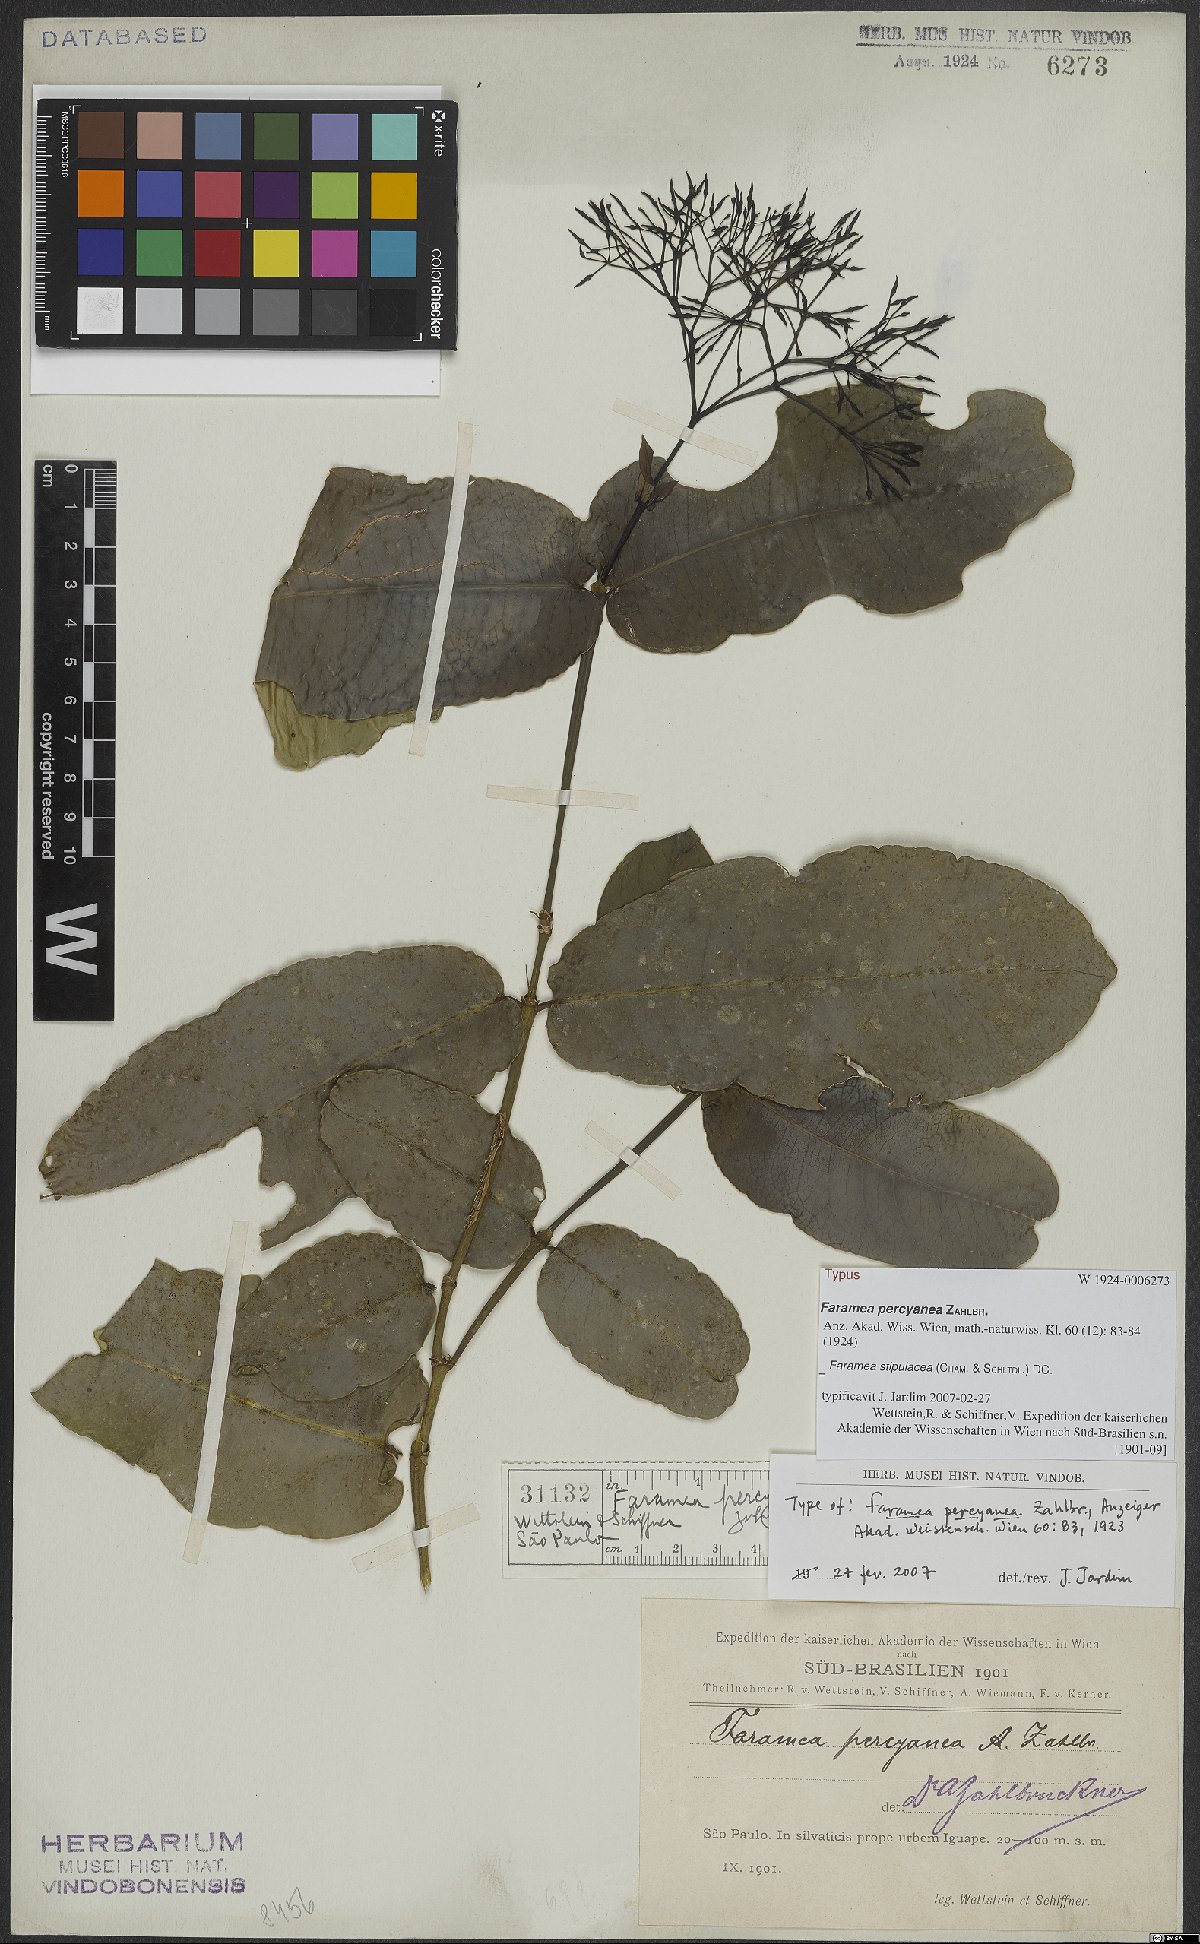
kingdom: Plantae
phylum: Tracheophyta
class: Magnoliopsida
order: Gentianales
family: Rubiaceae
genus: Faramea
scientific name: Faramea stipulacea
